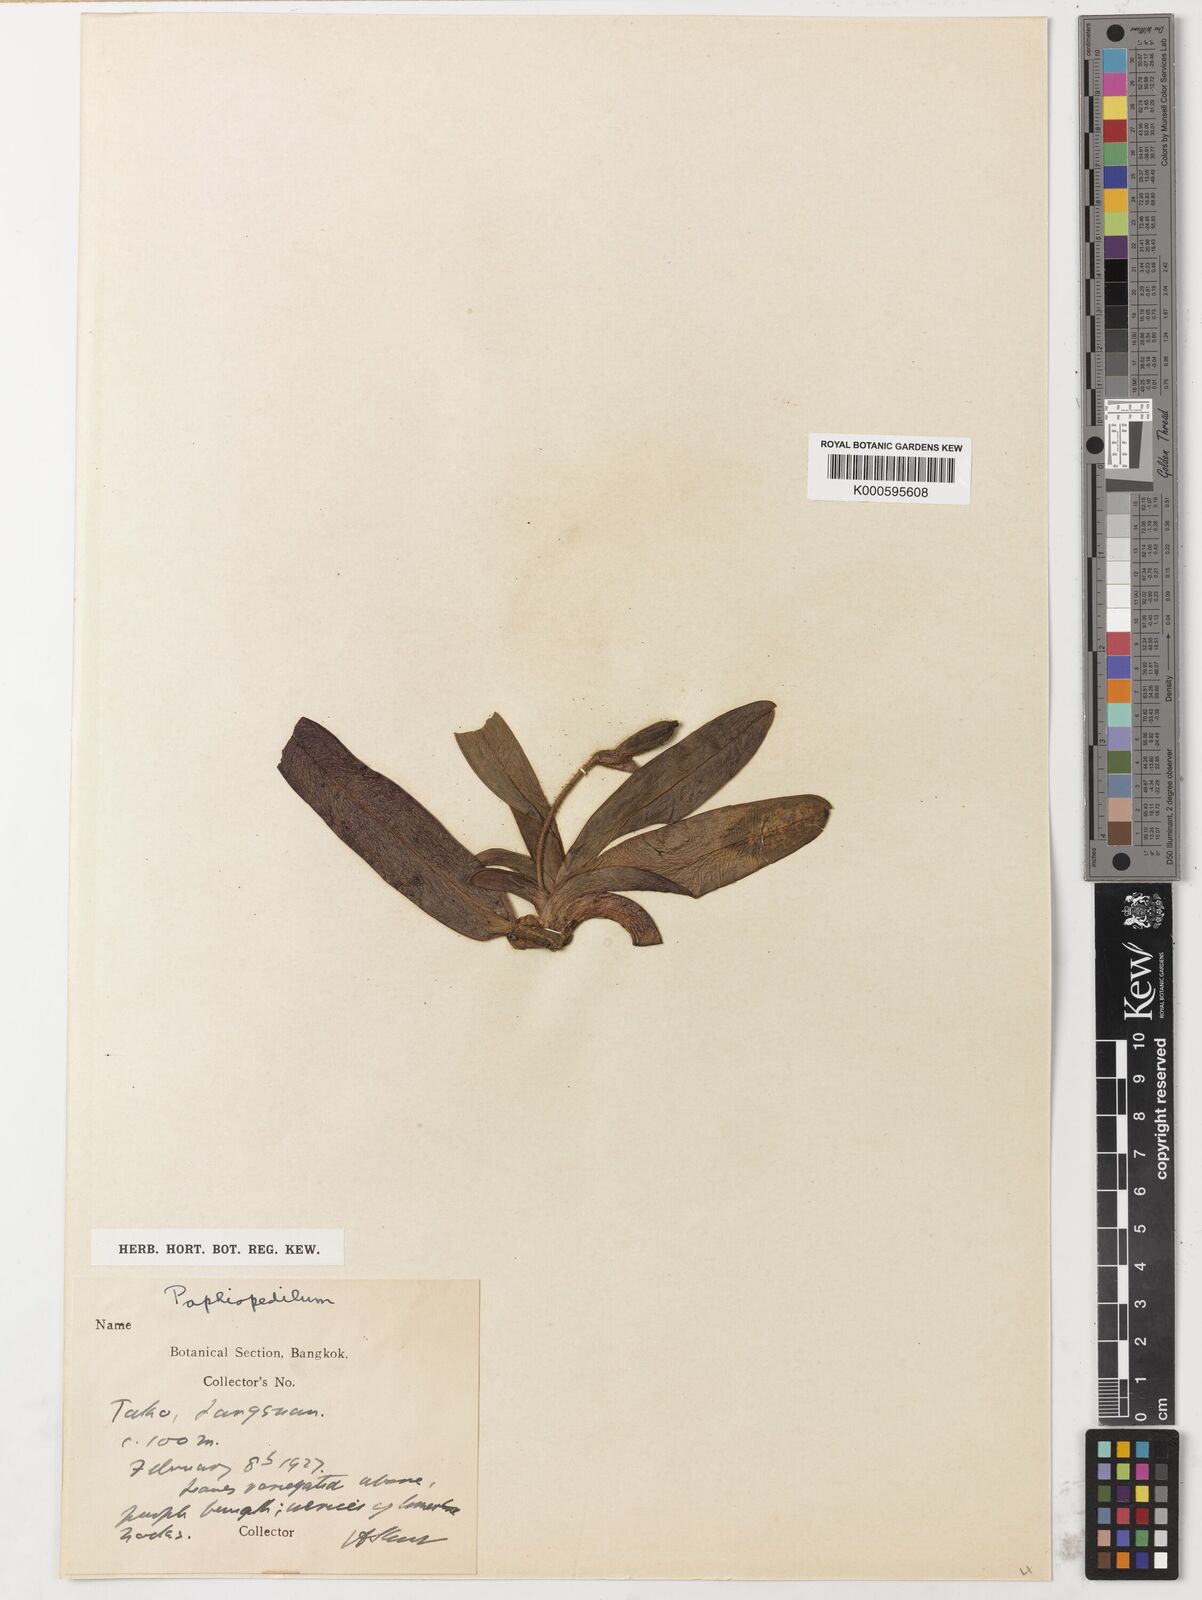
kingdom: Plantae
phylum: Tracheophyta
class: Liliopsida
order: Asparagales
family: Orchidaceae
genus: Paphiopedilum
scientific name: Paphiopedilum godefroyae
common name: Godefroy's paphiopedilum
